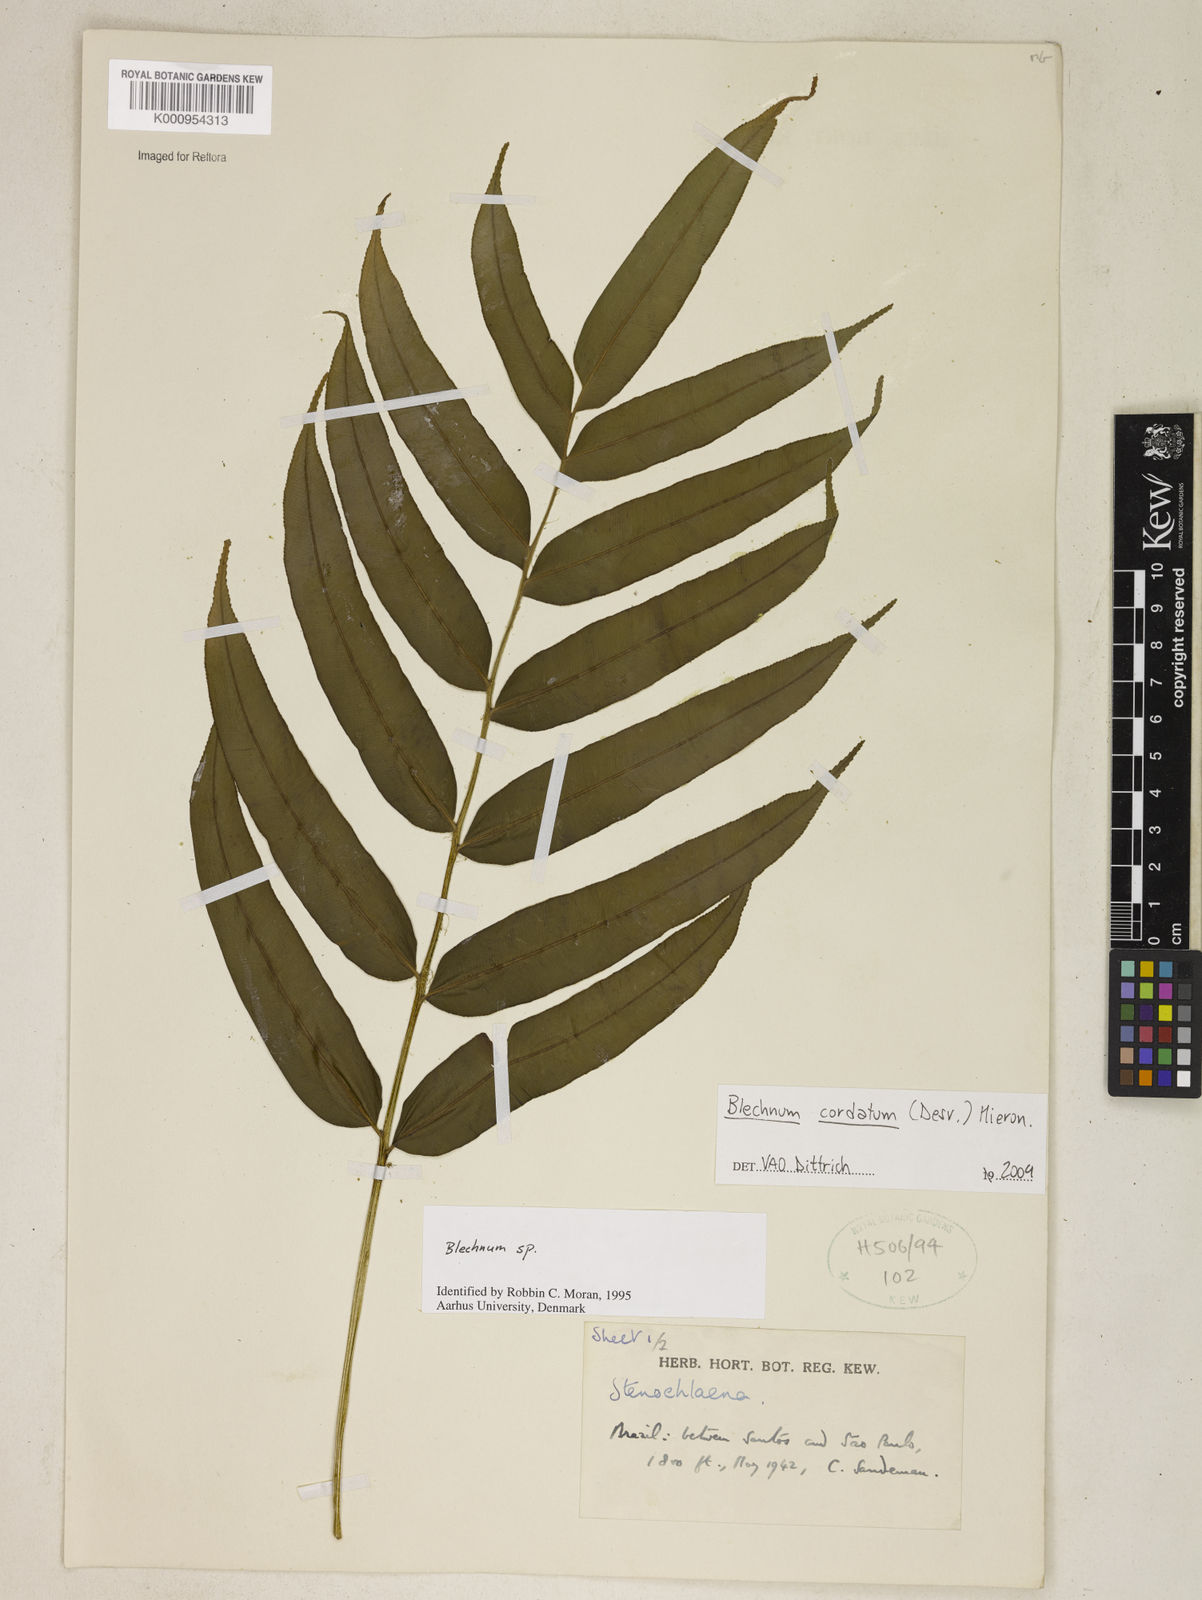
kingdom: Plantae
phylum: Tracheophyta
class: Polypodiopsida
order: Polypodiales
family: Blechnaceae
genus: Parablechnum
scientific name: Parablechnum cordatum
